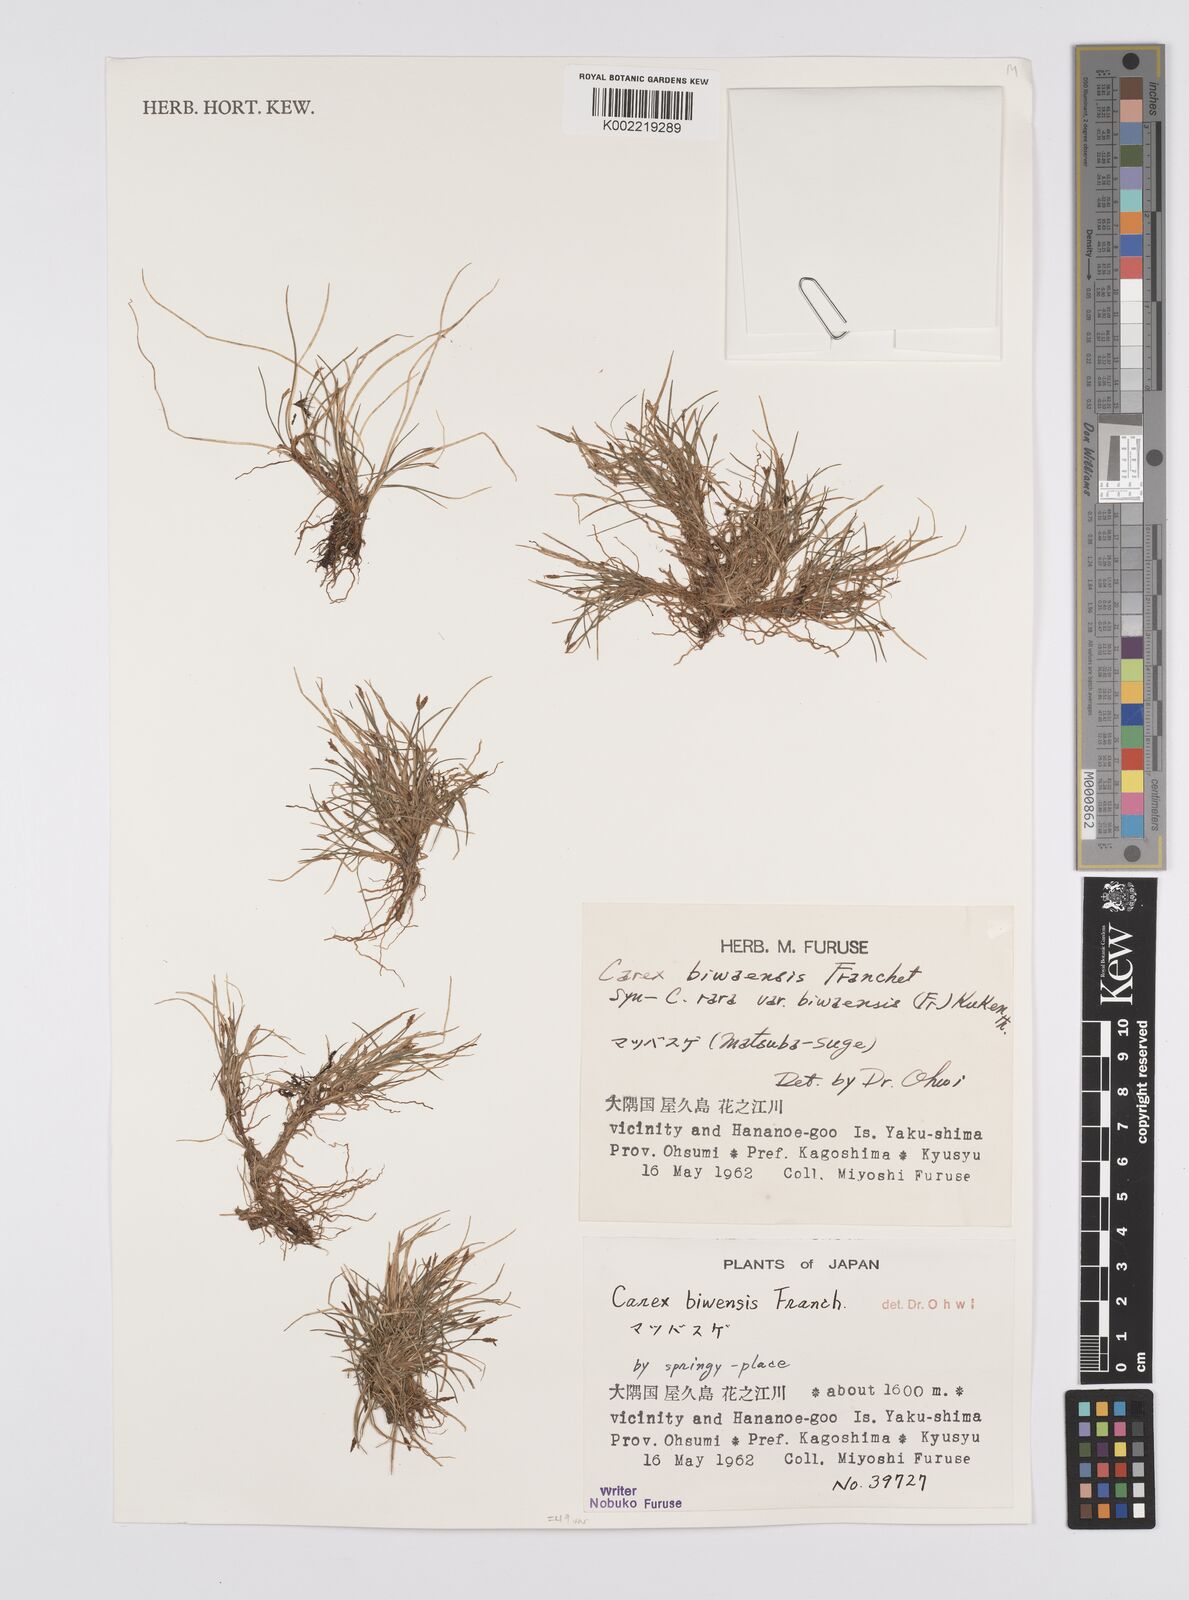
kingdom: Plantae
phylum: Tracheophyta
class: Liliopsida
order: Poales
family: Cyperaceae
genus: Carex
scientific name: Carex rara
